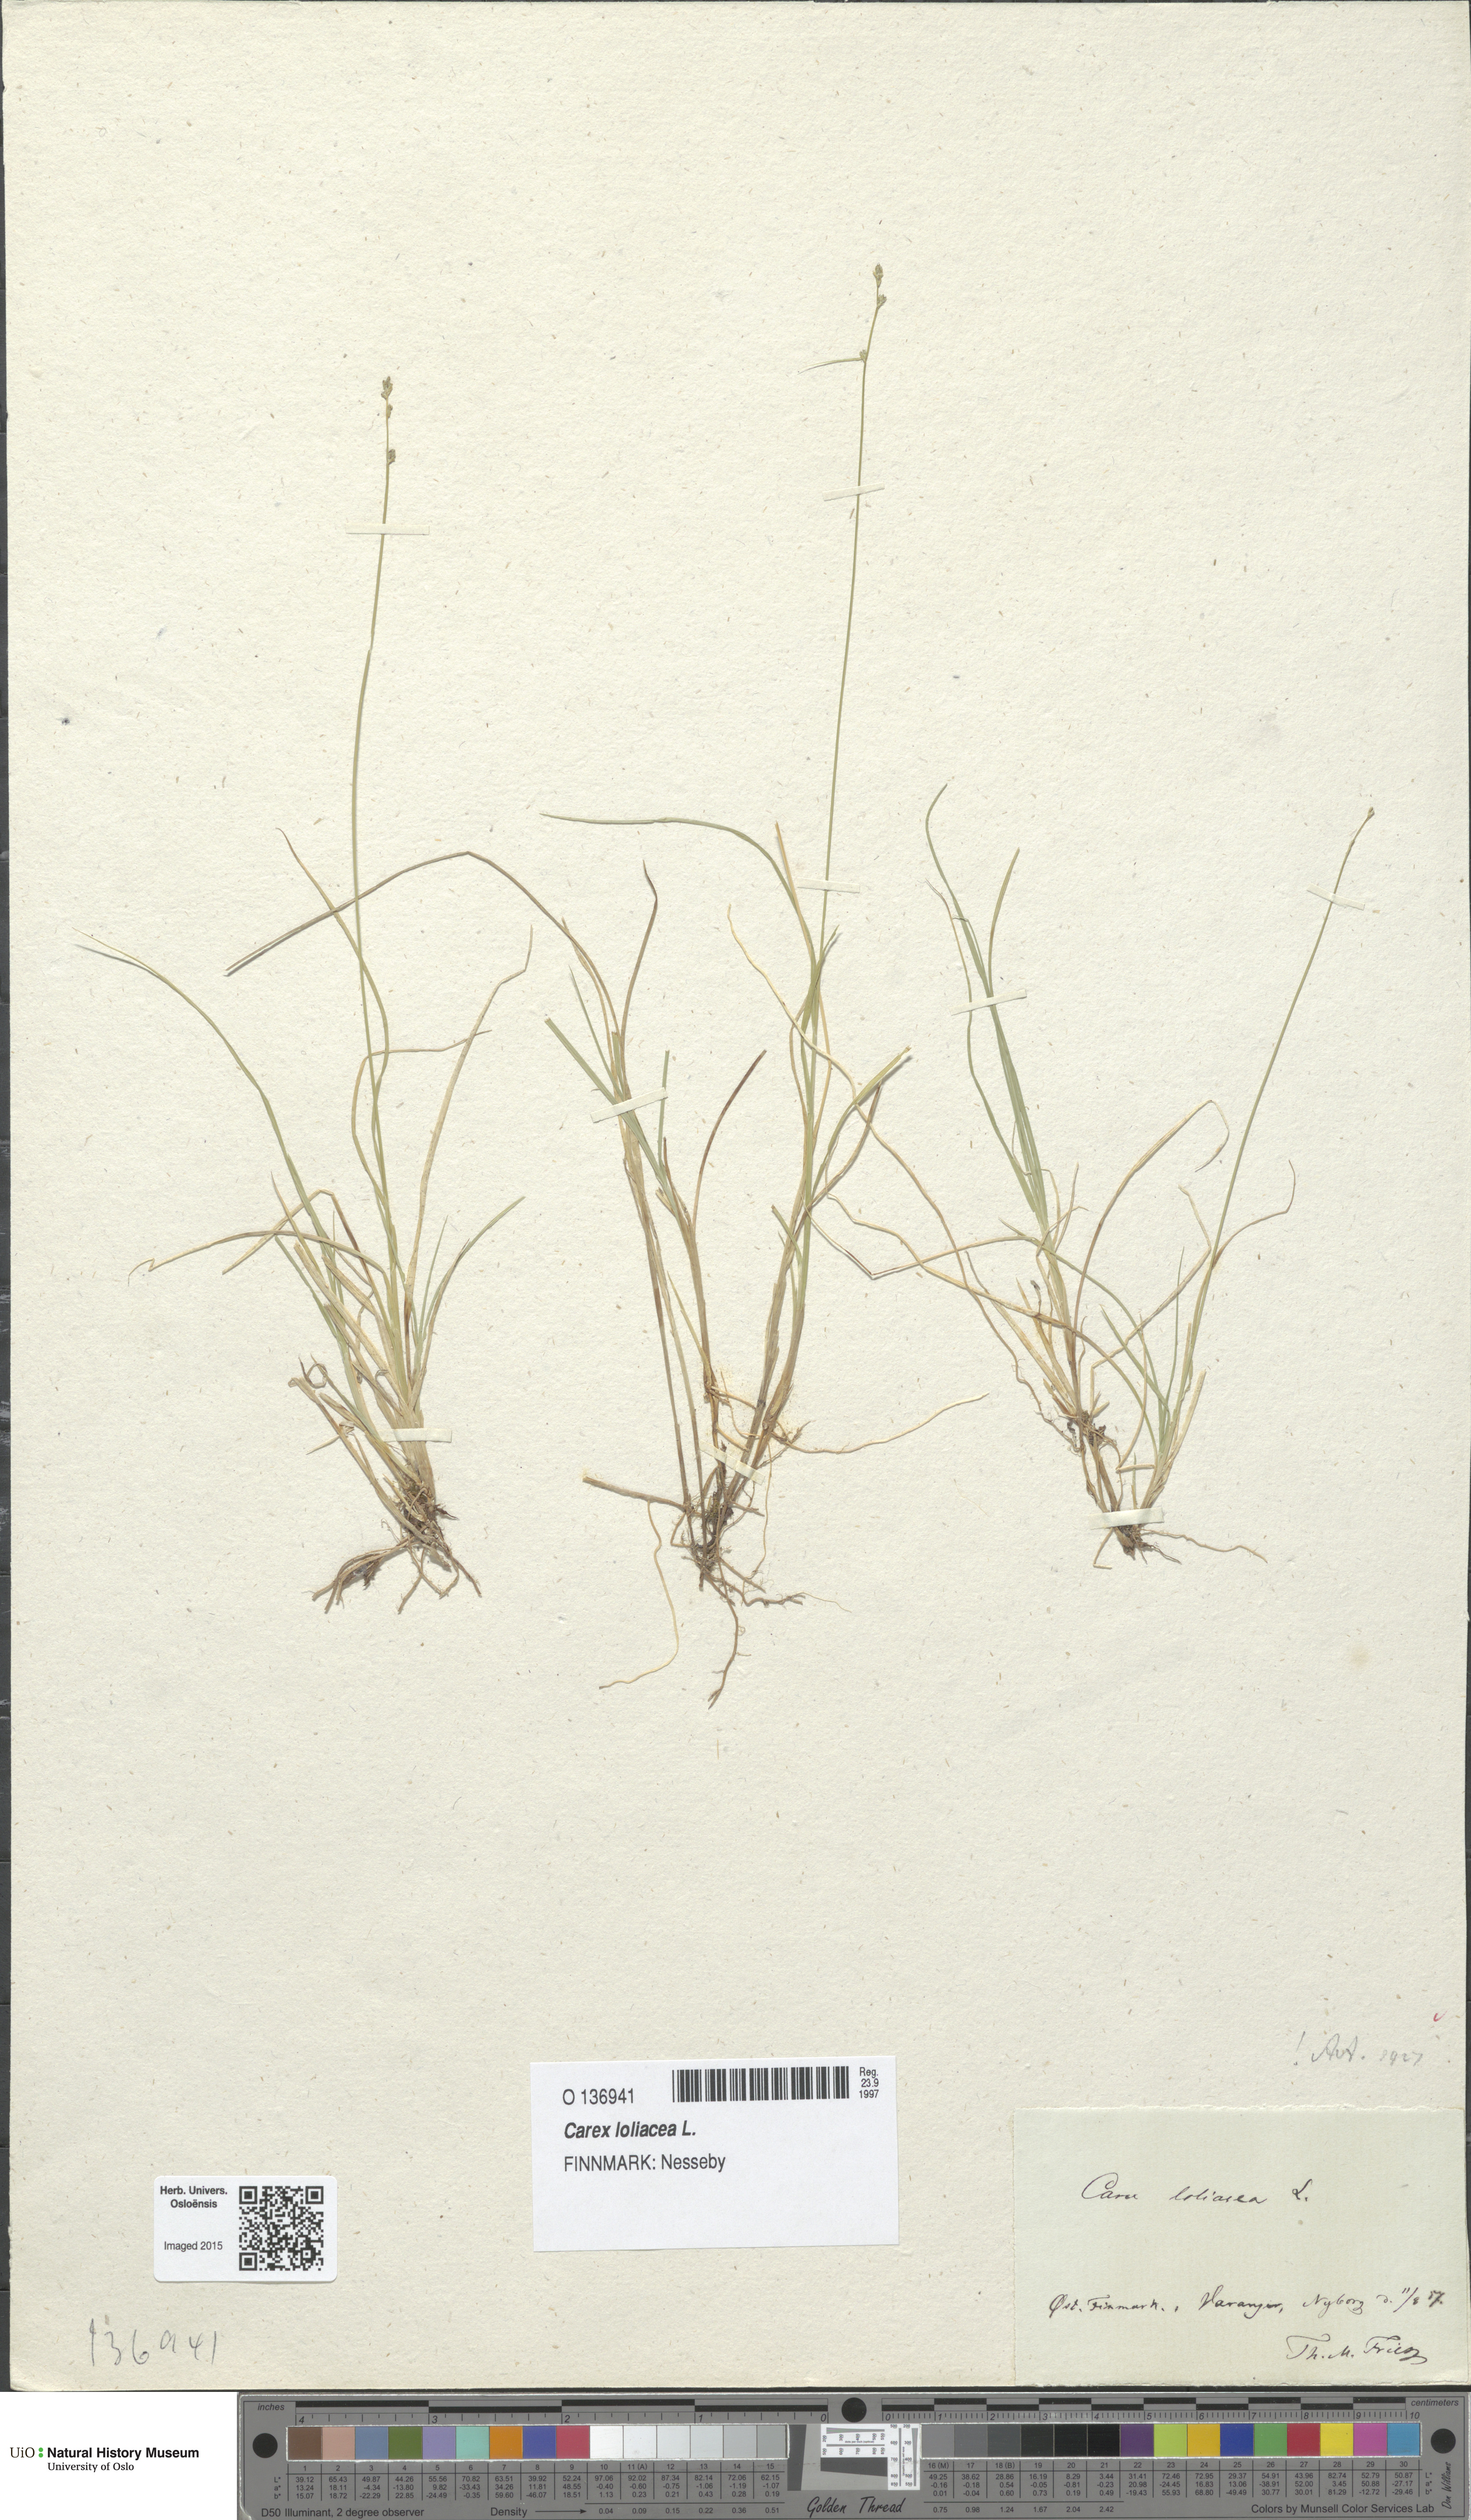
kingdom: Plantae
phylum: Tracheophyta
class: Liliopsida
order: Poales
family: Cyperaceae
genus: Carex
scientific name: Carex loliacea
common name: Ryegrass sedge
